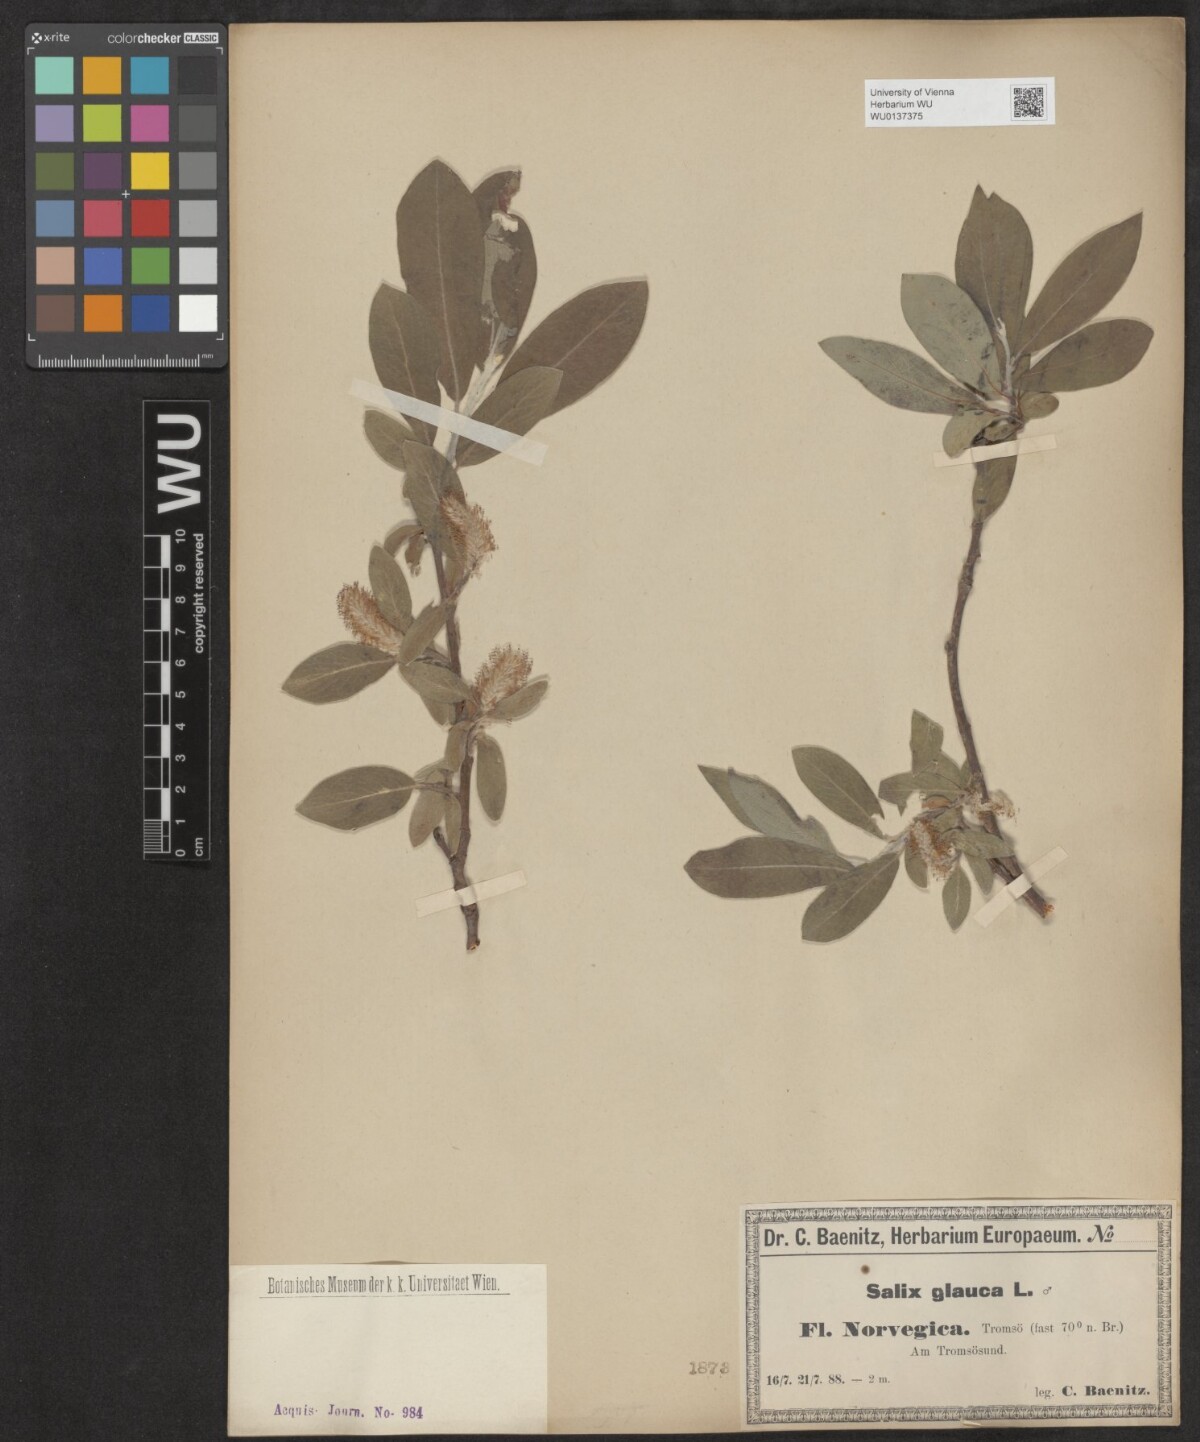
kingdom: Plantae
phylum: Tracheophyta
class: Magnoliopsida
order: Malpighiales
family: Salicaceae
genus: Salix
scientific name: Salix glauca
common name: Glaucous willow
